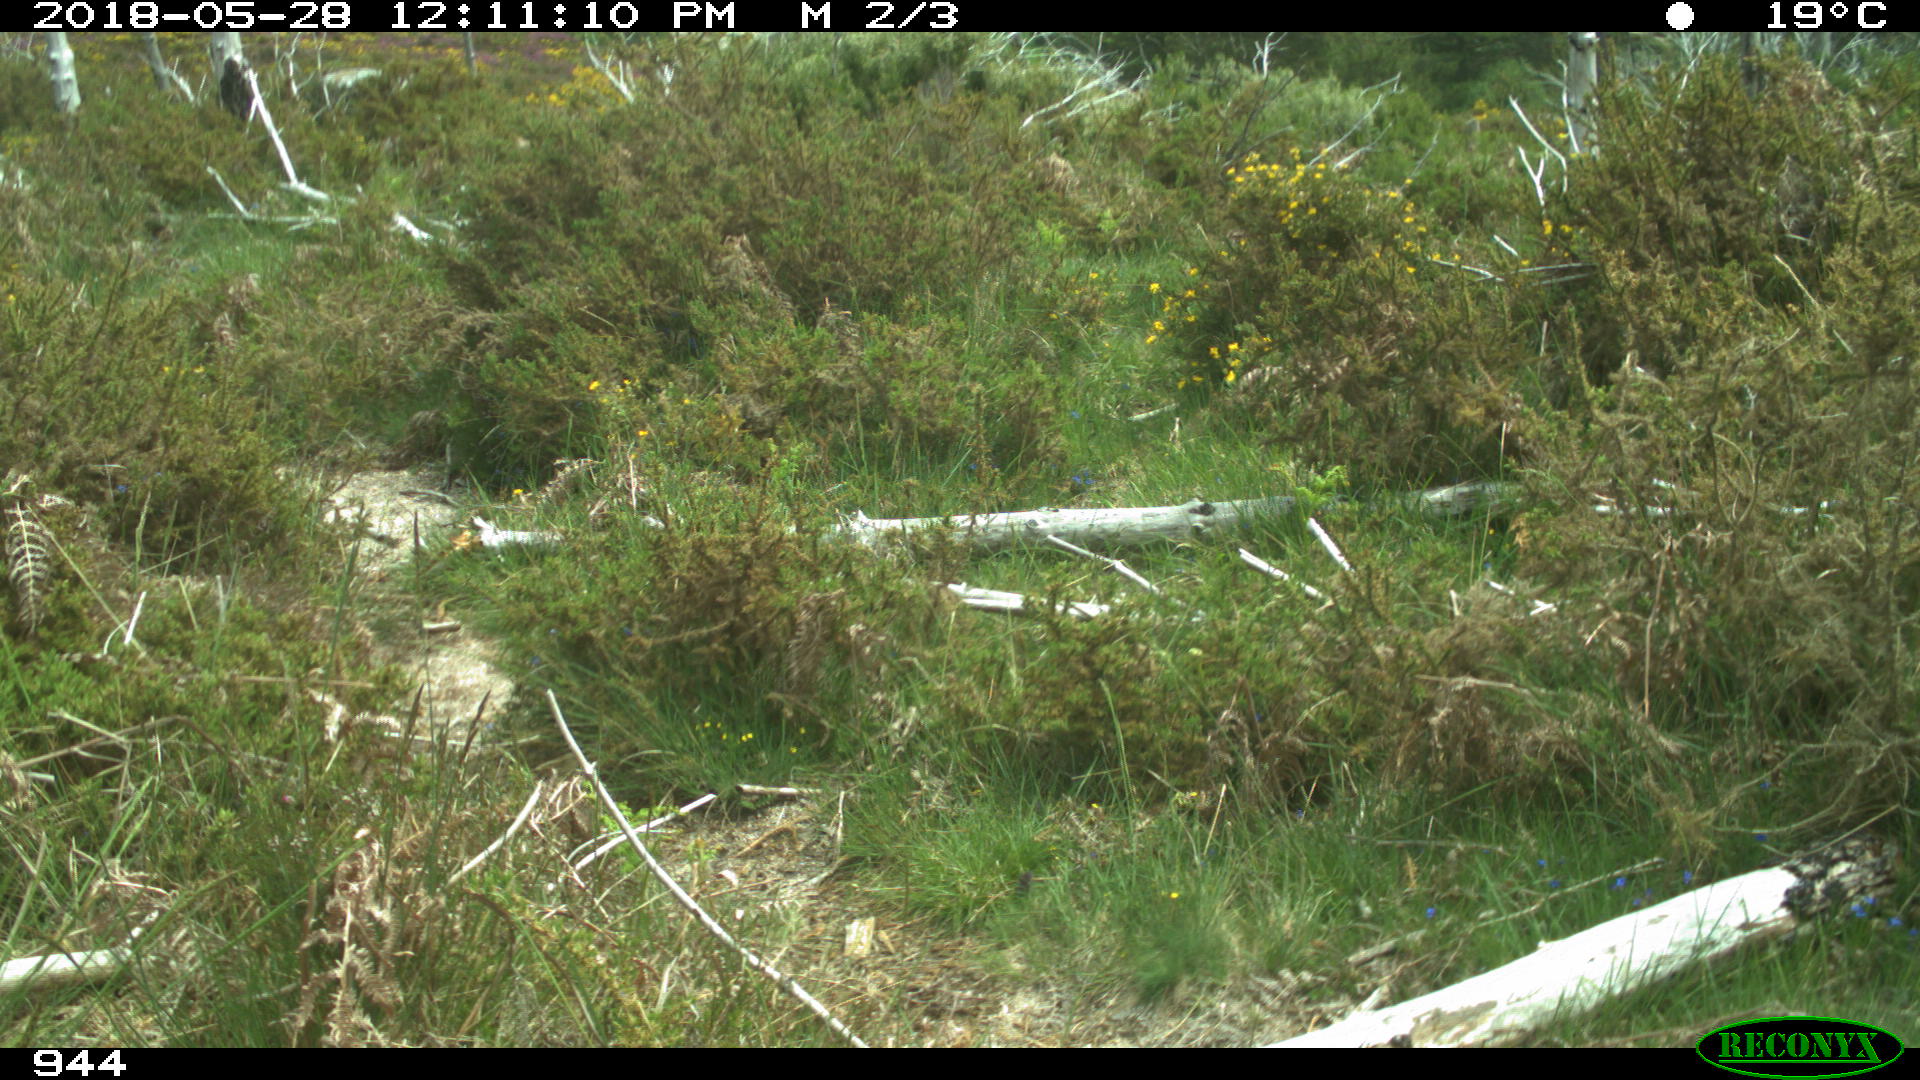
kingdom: Animalia
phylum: Chordata
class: Mammalia
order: Perissodactyla
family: Equidae
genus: Equus
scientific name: Equus caballus
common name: Horse
